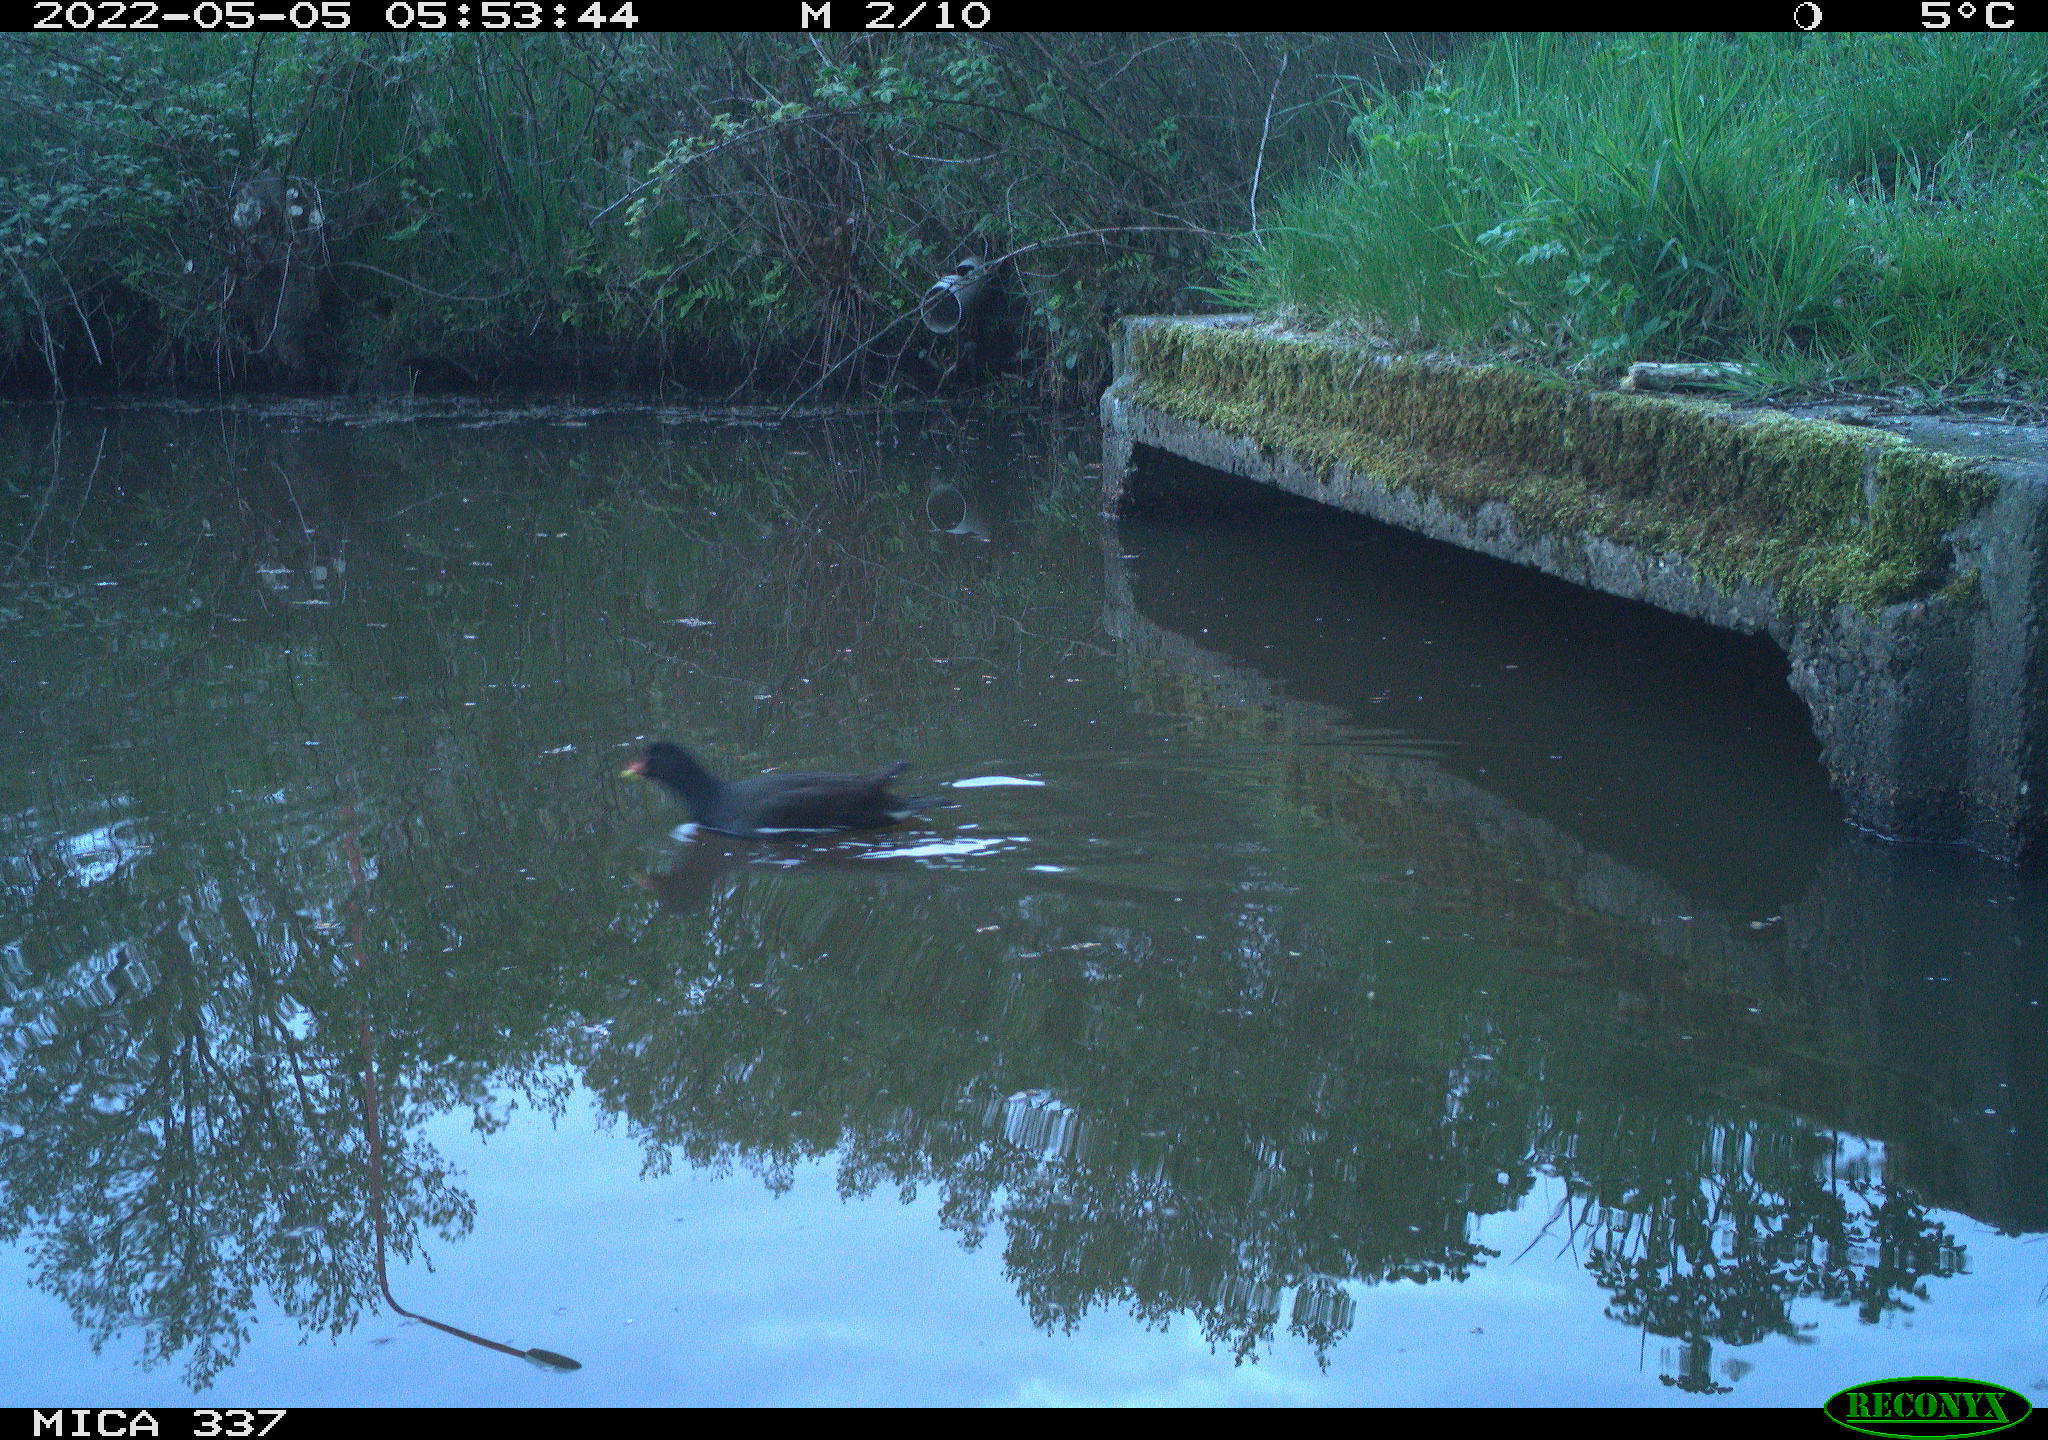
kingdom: Animalia
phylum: Chordata
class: Aves
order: Gruiformes
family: Rallidae
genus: Gallinula
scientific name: Gallinula chloropus
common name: Common moorhen
